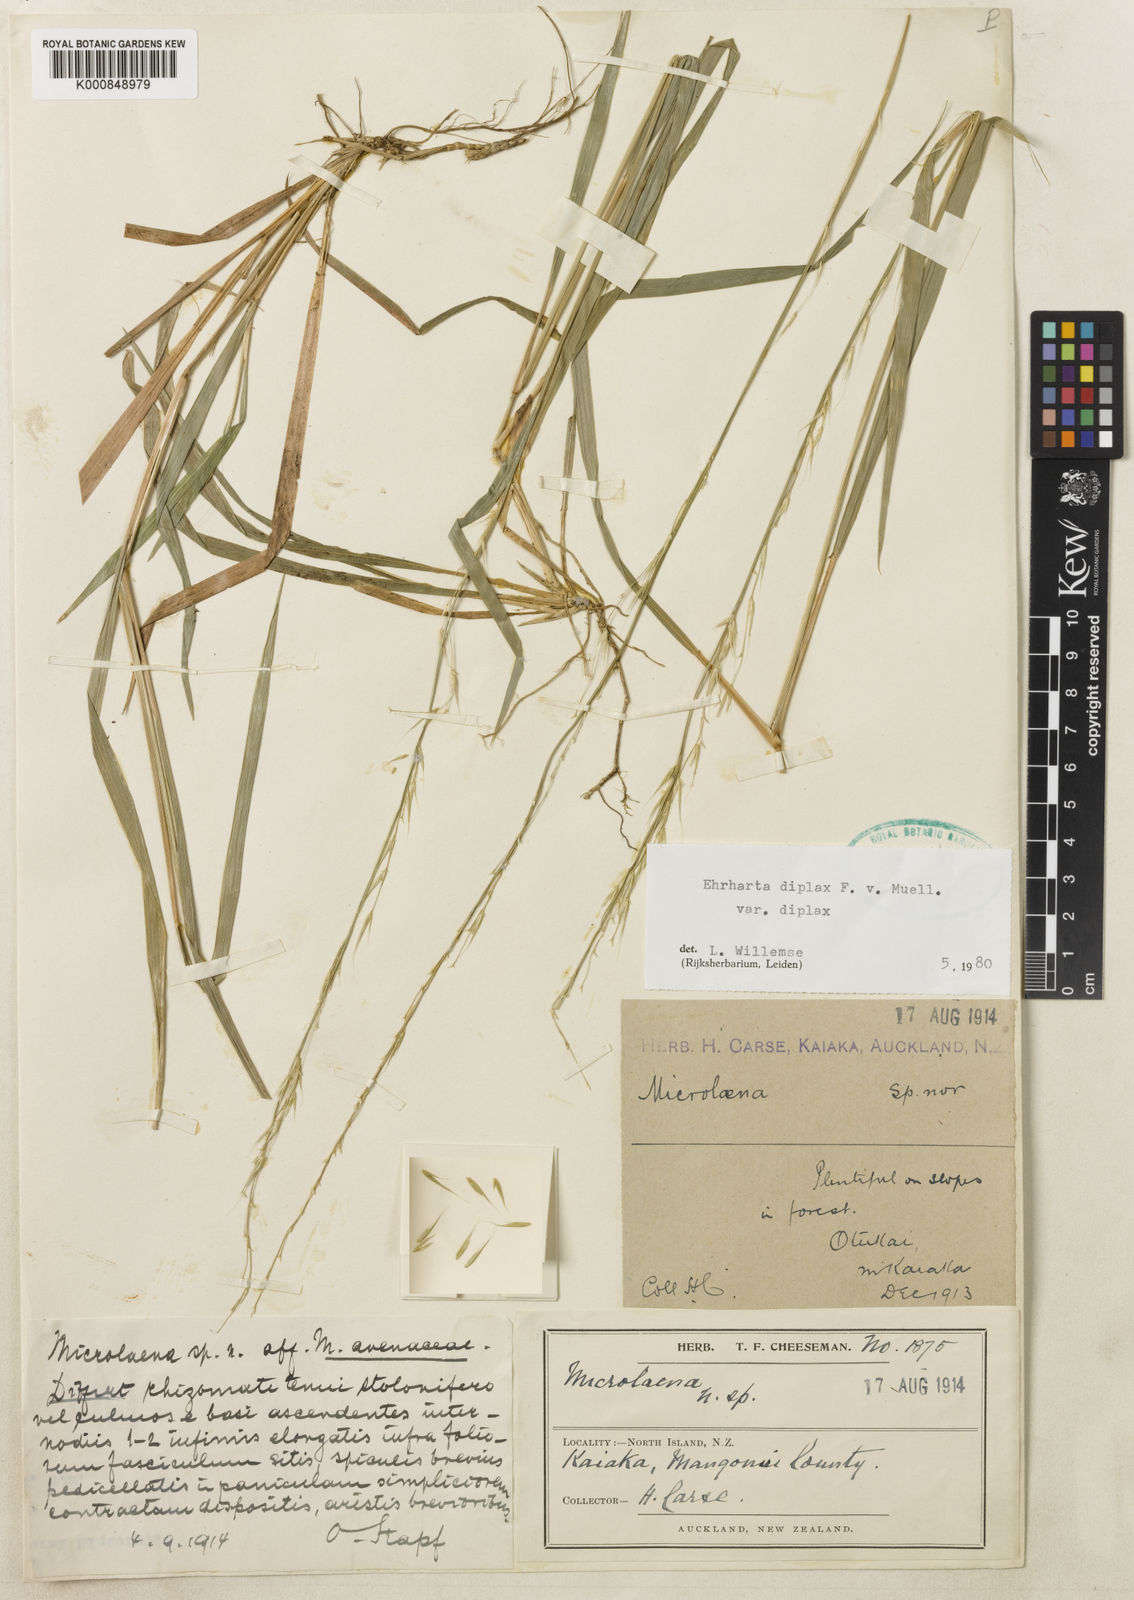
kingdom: Plantae
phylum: Tracheophyta
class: Liliopsida
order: Poales
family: Poaceae
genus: Ehrharta
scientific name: Ehrharta diplax
